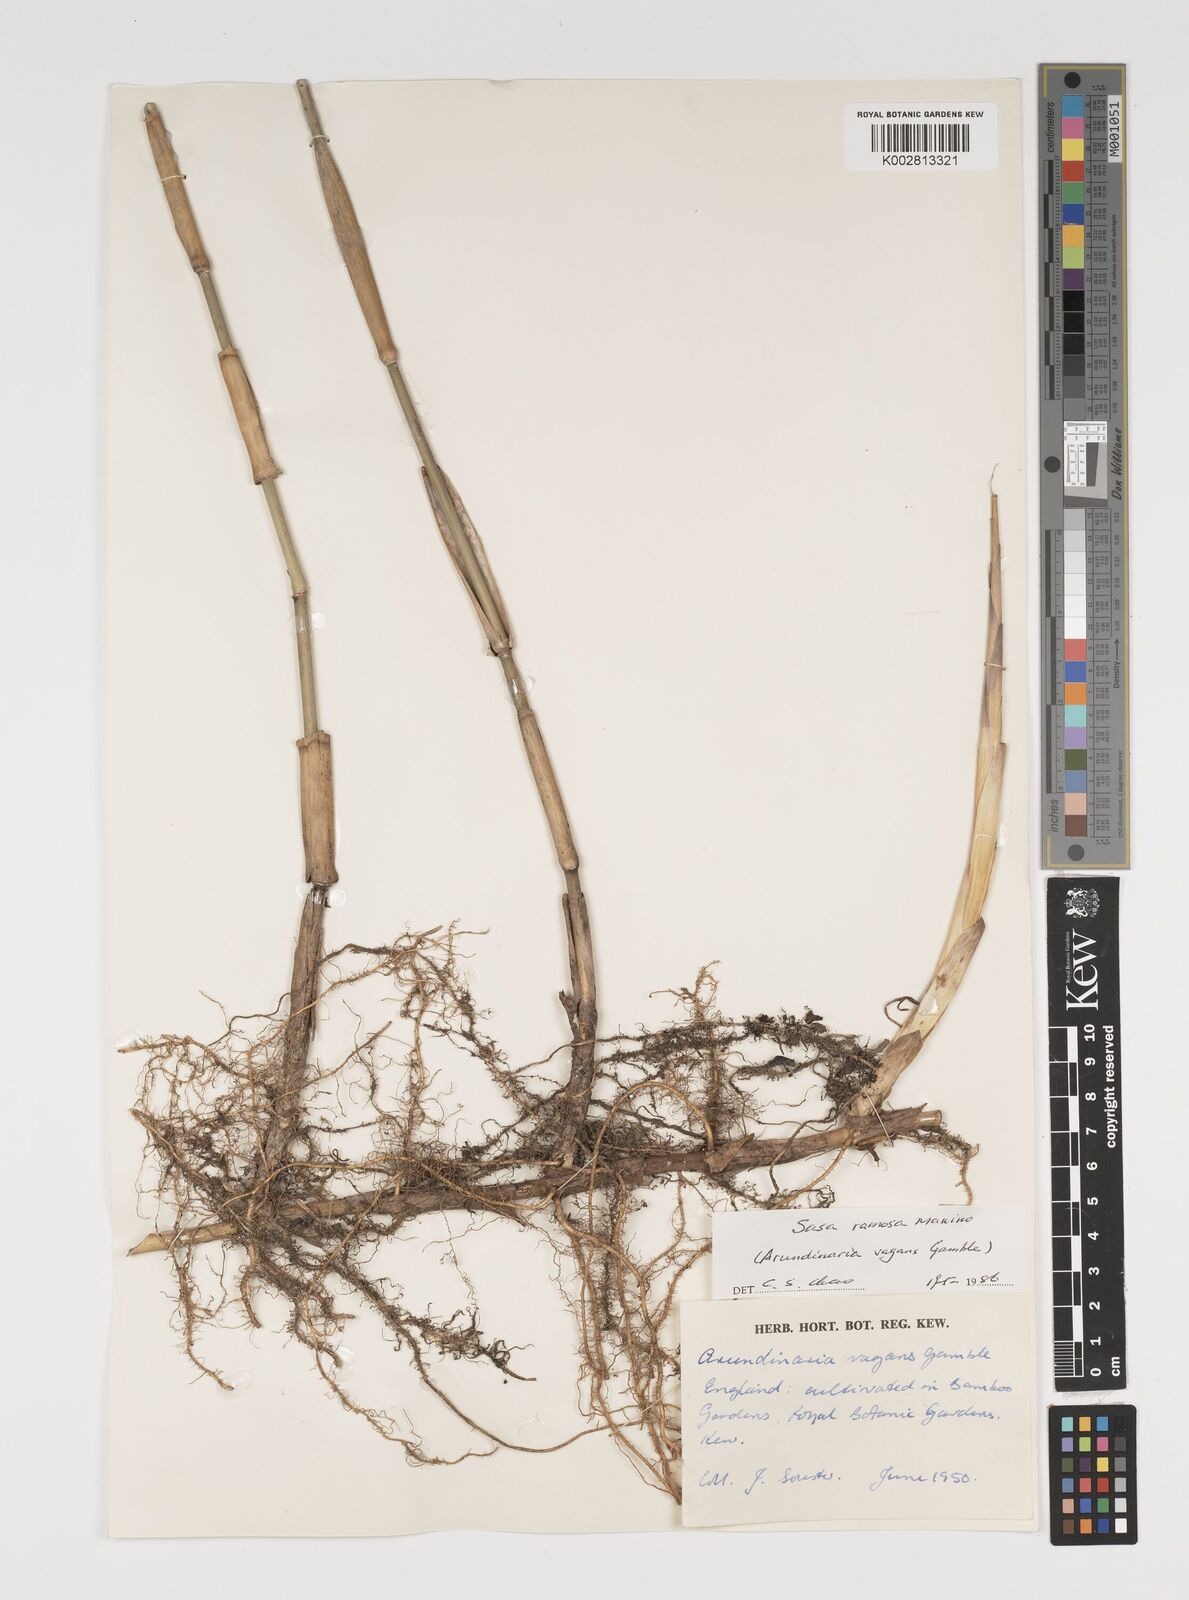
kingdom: Plantae
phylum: Tracheophyta
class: Liliopsida
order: Poales
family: Poaceae
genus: Sasaella
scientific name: Sasaella ramosa
